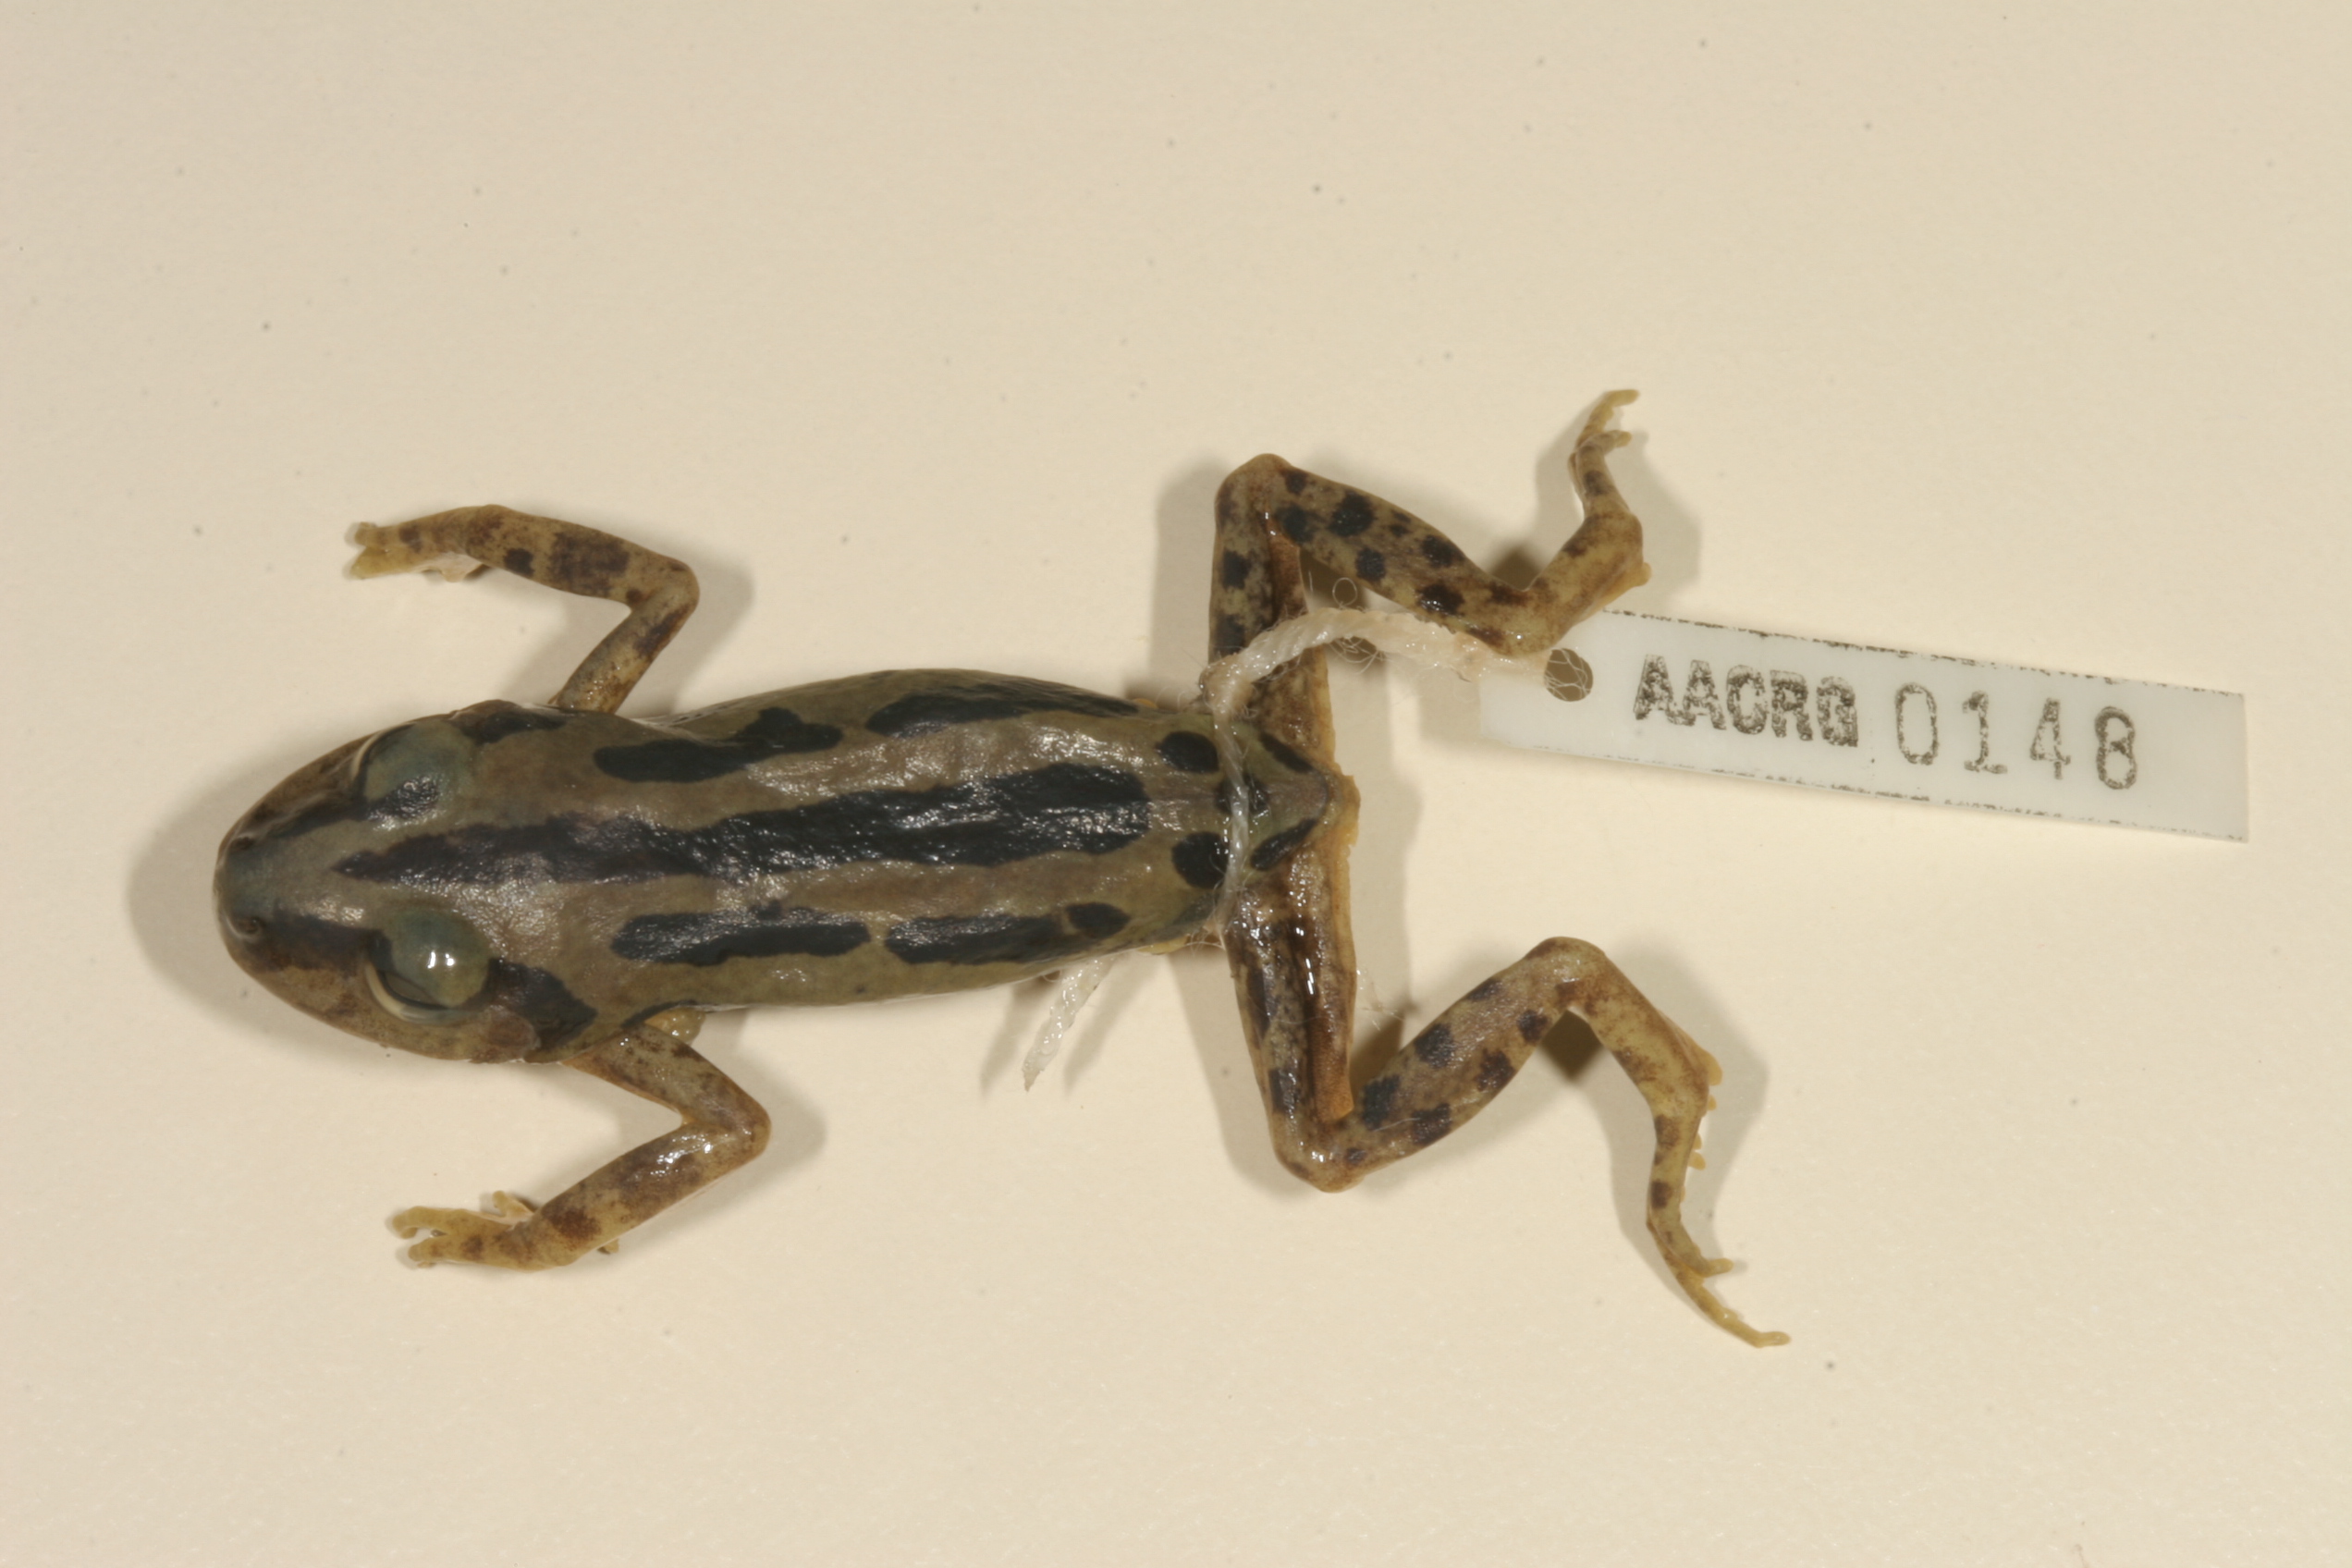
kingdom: Animalia
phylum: Chordata
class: Amphibia
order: Anura
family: Hyperoliidae
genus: Kassina
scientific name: Kassina senegalensis
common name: Senegal land frog
